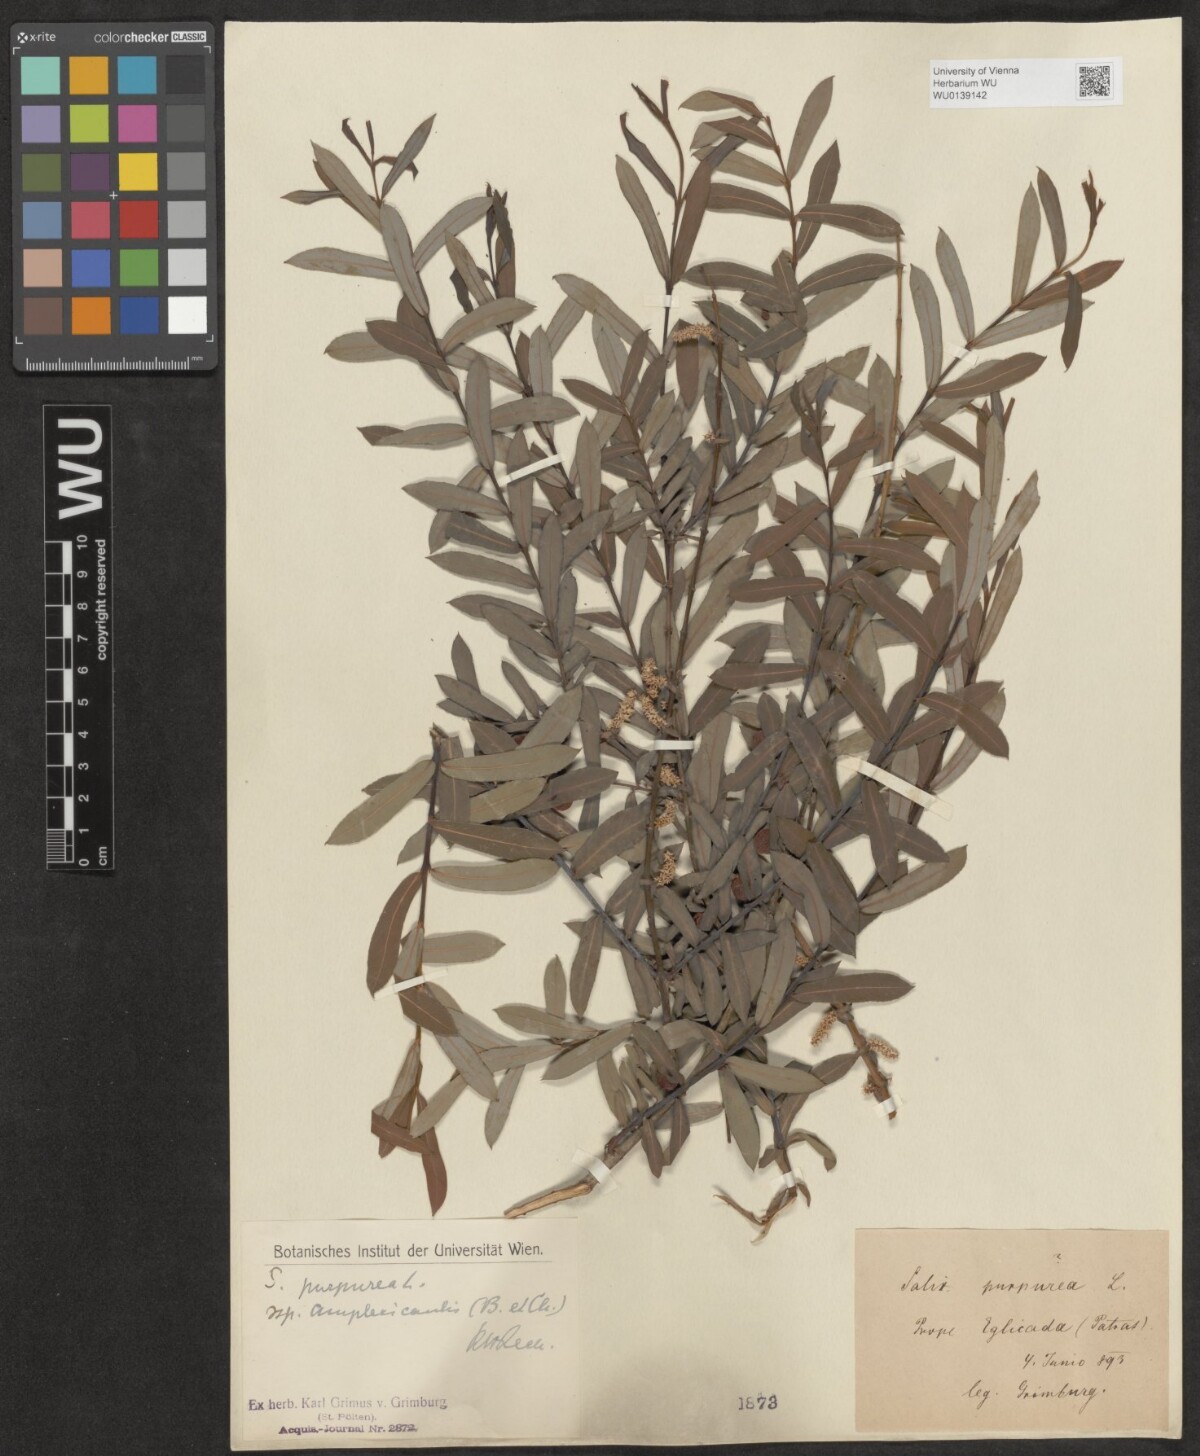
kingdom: Plantae
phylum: Tracheophyta
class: Magnoliopsida
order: Malpighiales
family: Salicaceae
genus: Salix
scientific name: Salix amplexicaulis
